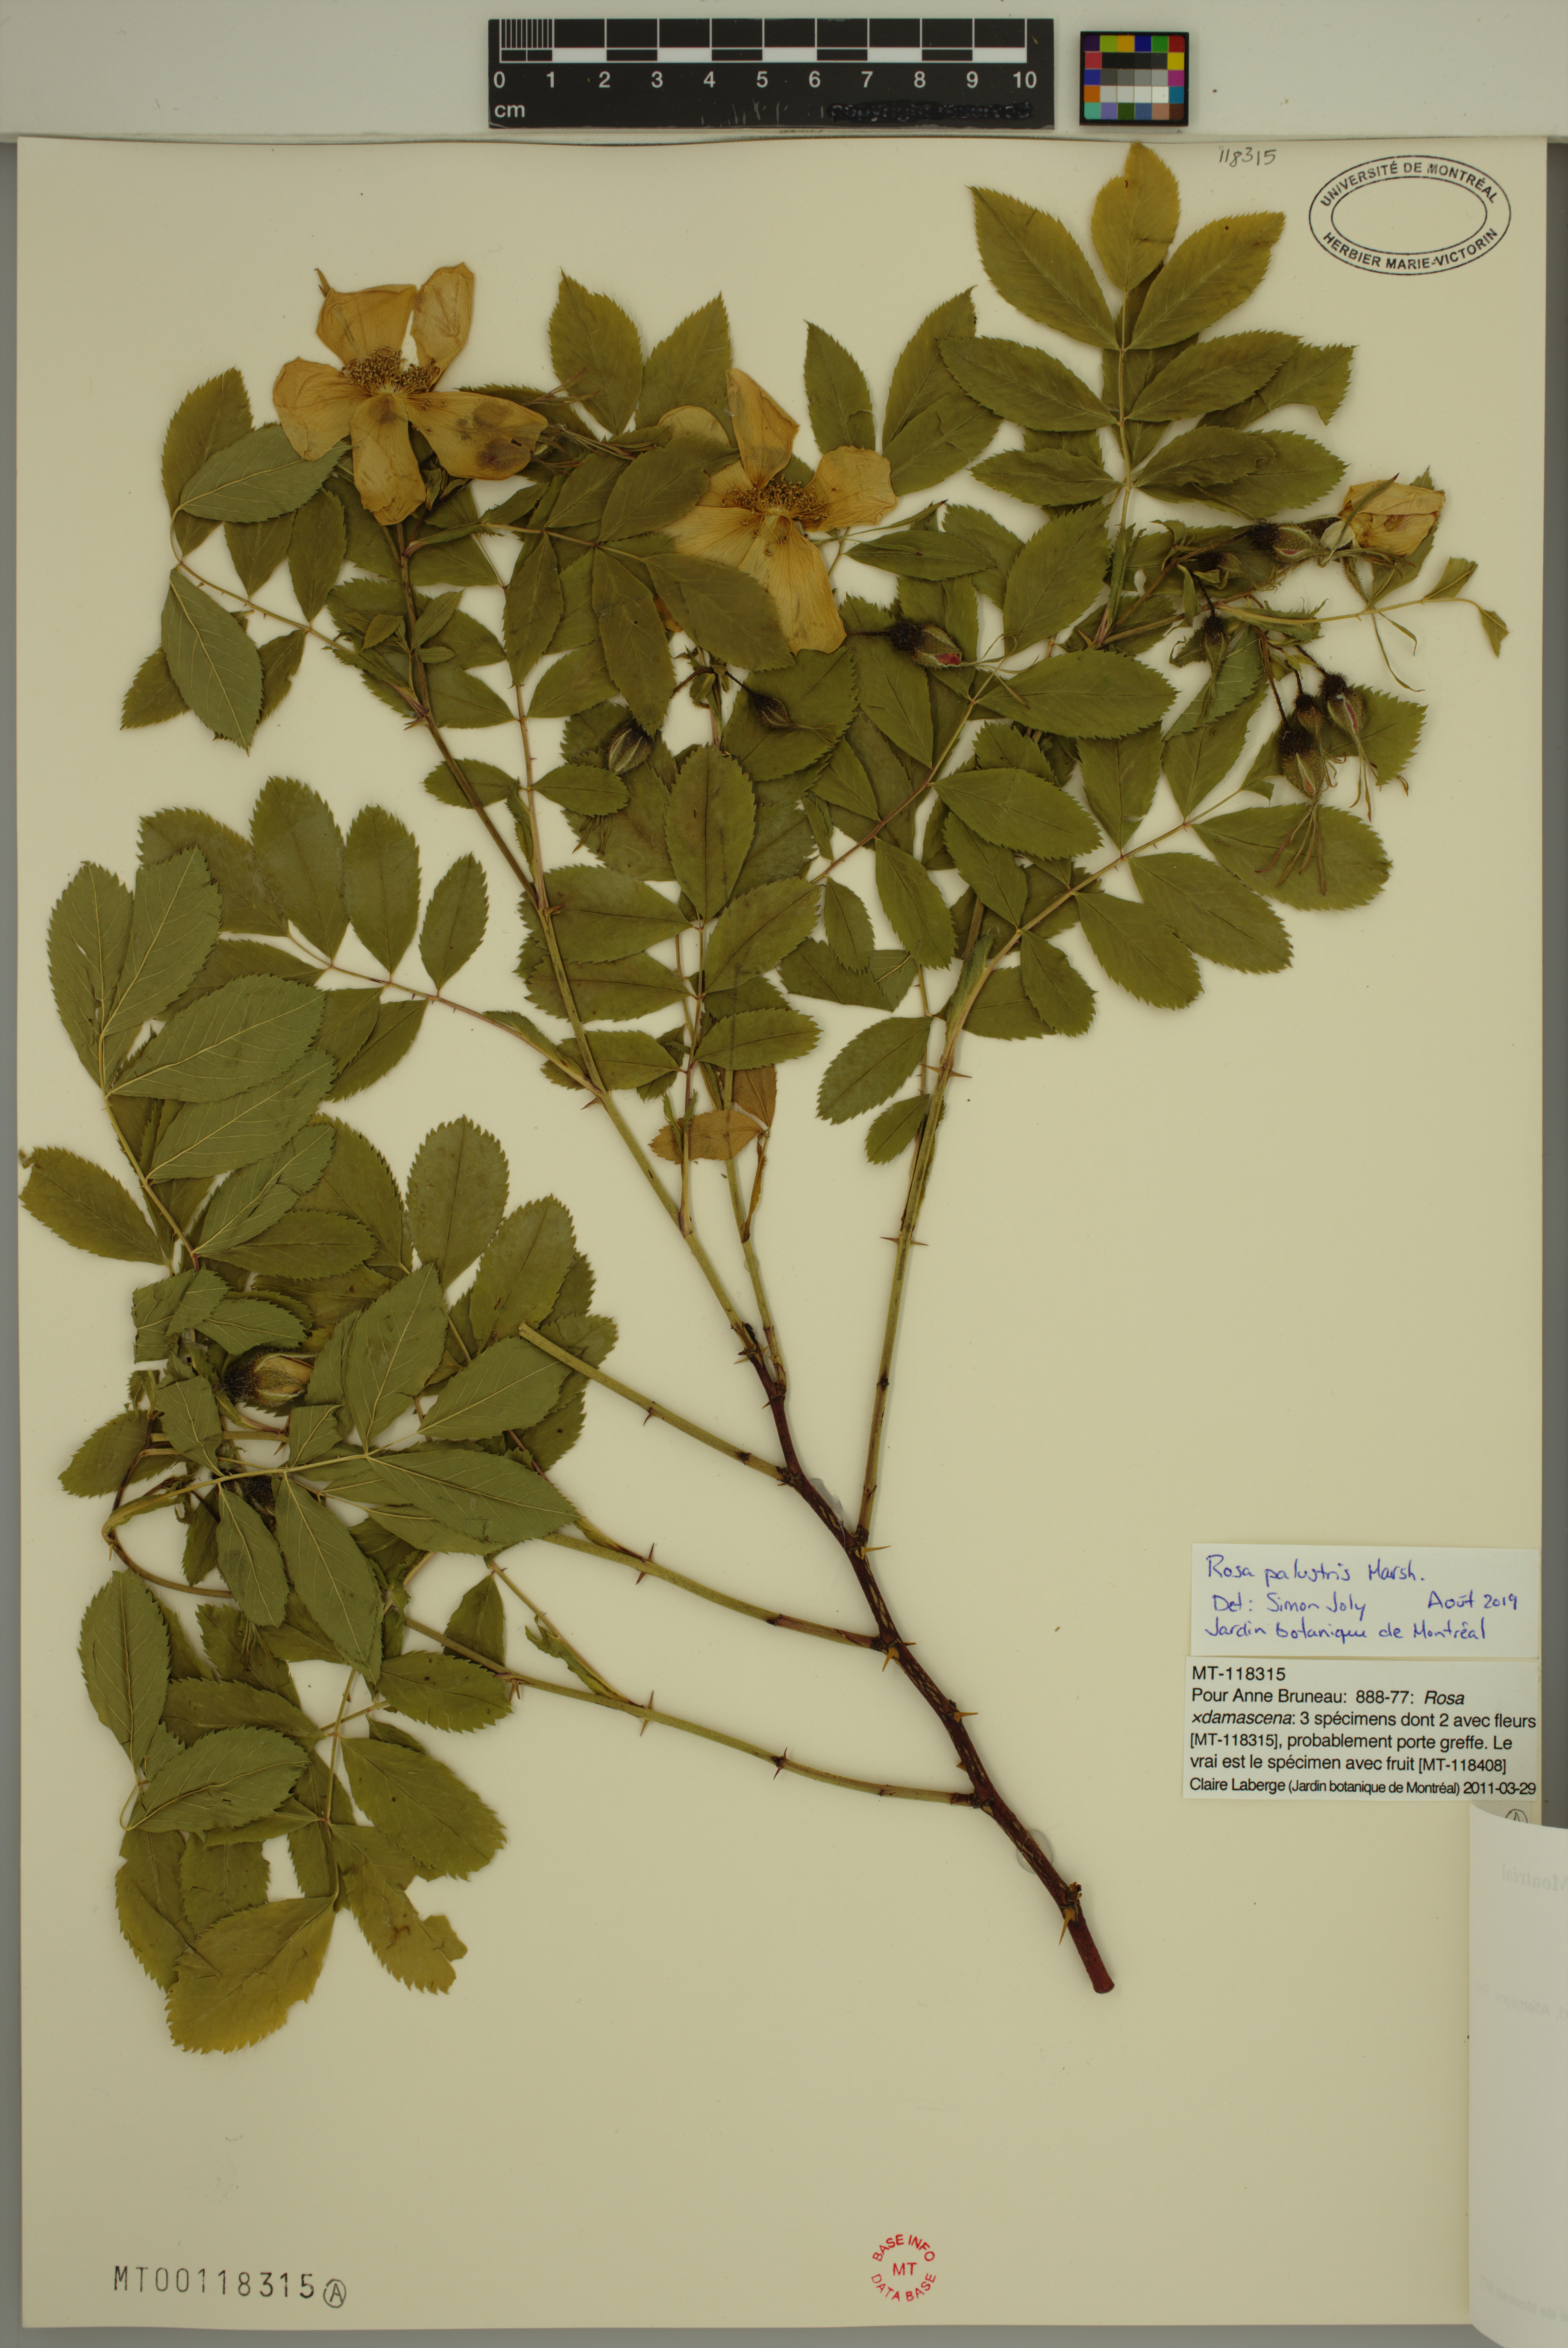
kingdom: Plantae
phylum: Tracheophyta
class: Magnoliopsida
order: Rosales
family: Rosaceae
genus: Rosa
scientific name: Rosa palustris
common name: Swamp rose
